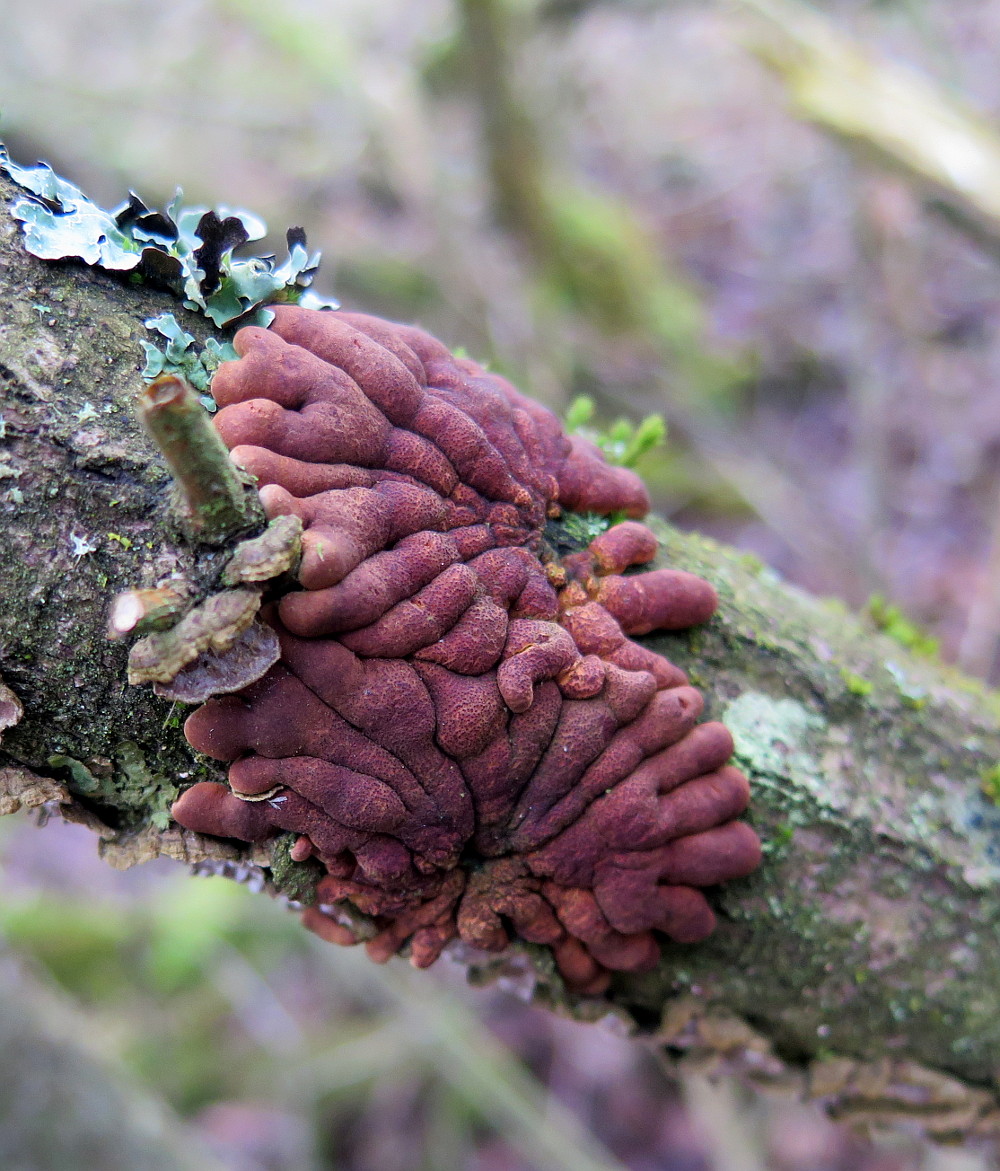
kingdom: Fungi
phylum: Ascomycota
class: Sordariomycetes
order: Hypocreales
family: Hypocreaceae
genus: Hypocreopsis
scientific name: Hypocreopsis lichenoides
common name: pilfinger
